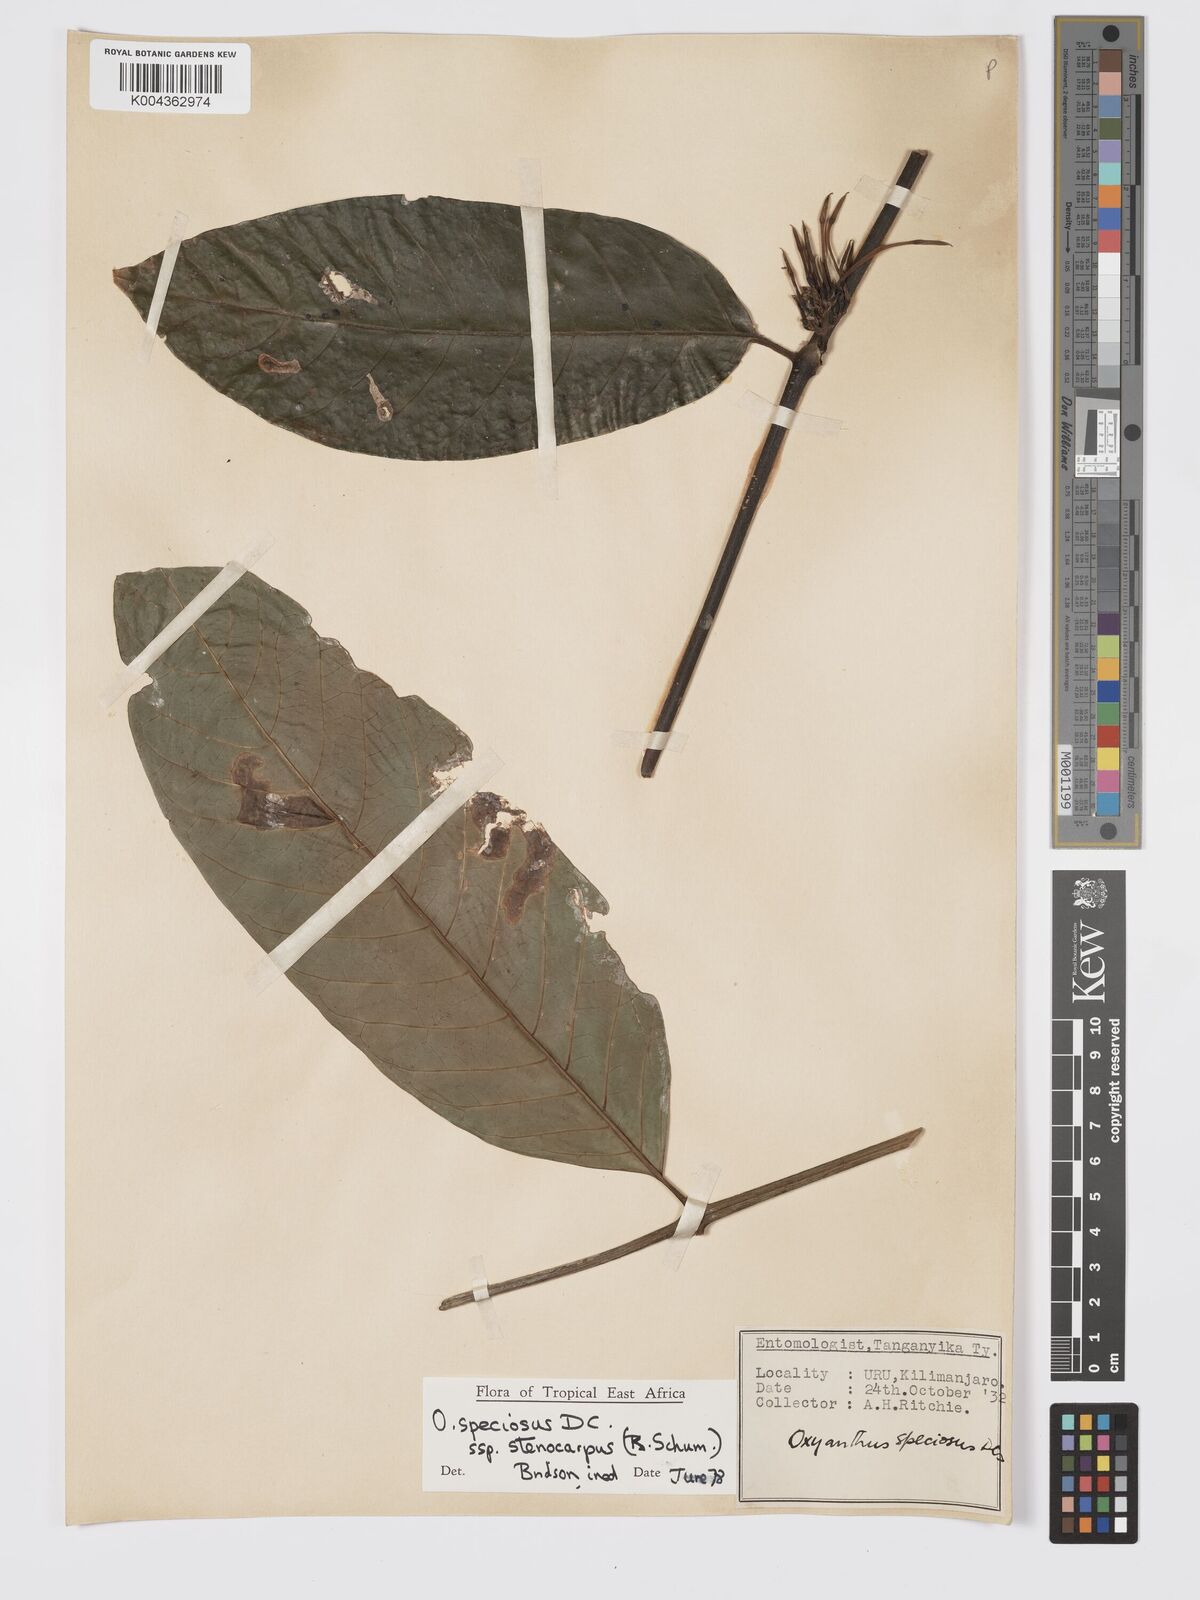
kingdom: Plantae
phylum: Tracheophyta
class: Magnoliopsida
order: Gentianales
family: Rubiaceae
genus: Oxyanthus
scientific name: Oxyanthus speciosus
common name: Whipstick loquat
